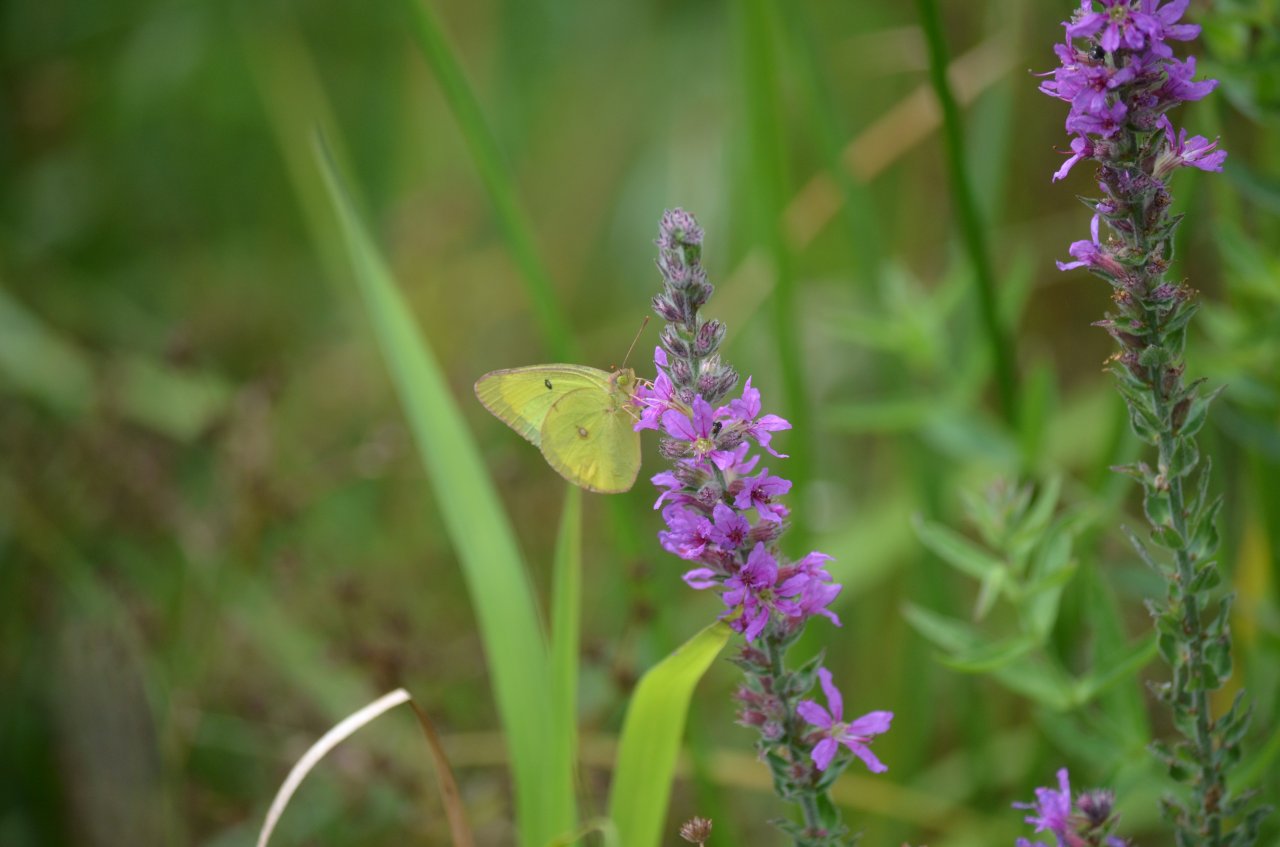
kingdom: Animalia
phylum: Arthropoda
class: Insecta
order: Lepidoptera
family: Pieridae
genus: Colias
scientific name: Colias philodice
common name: Clouded Sulphur
